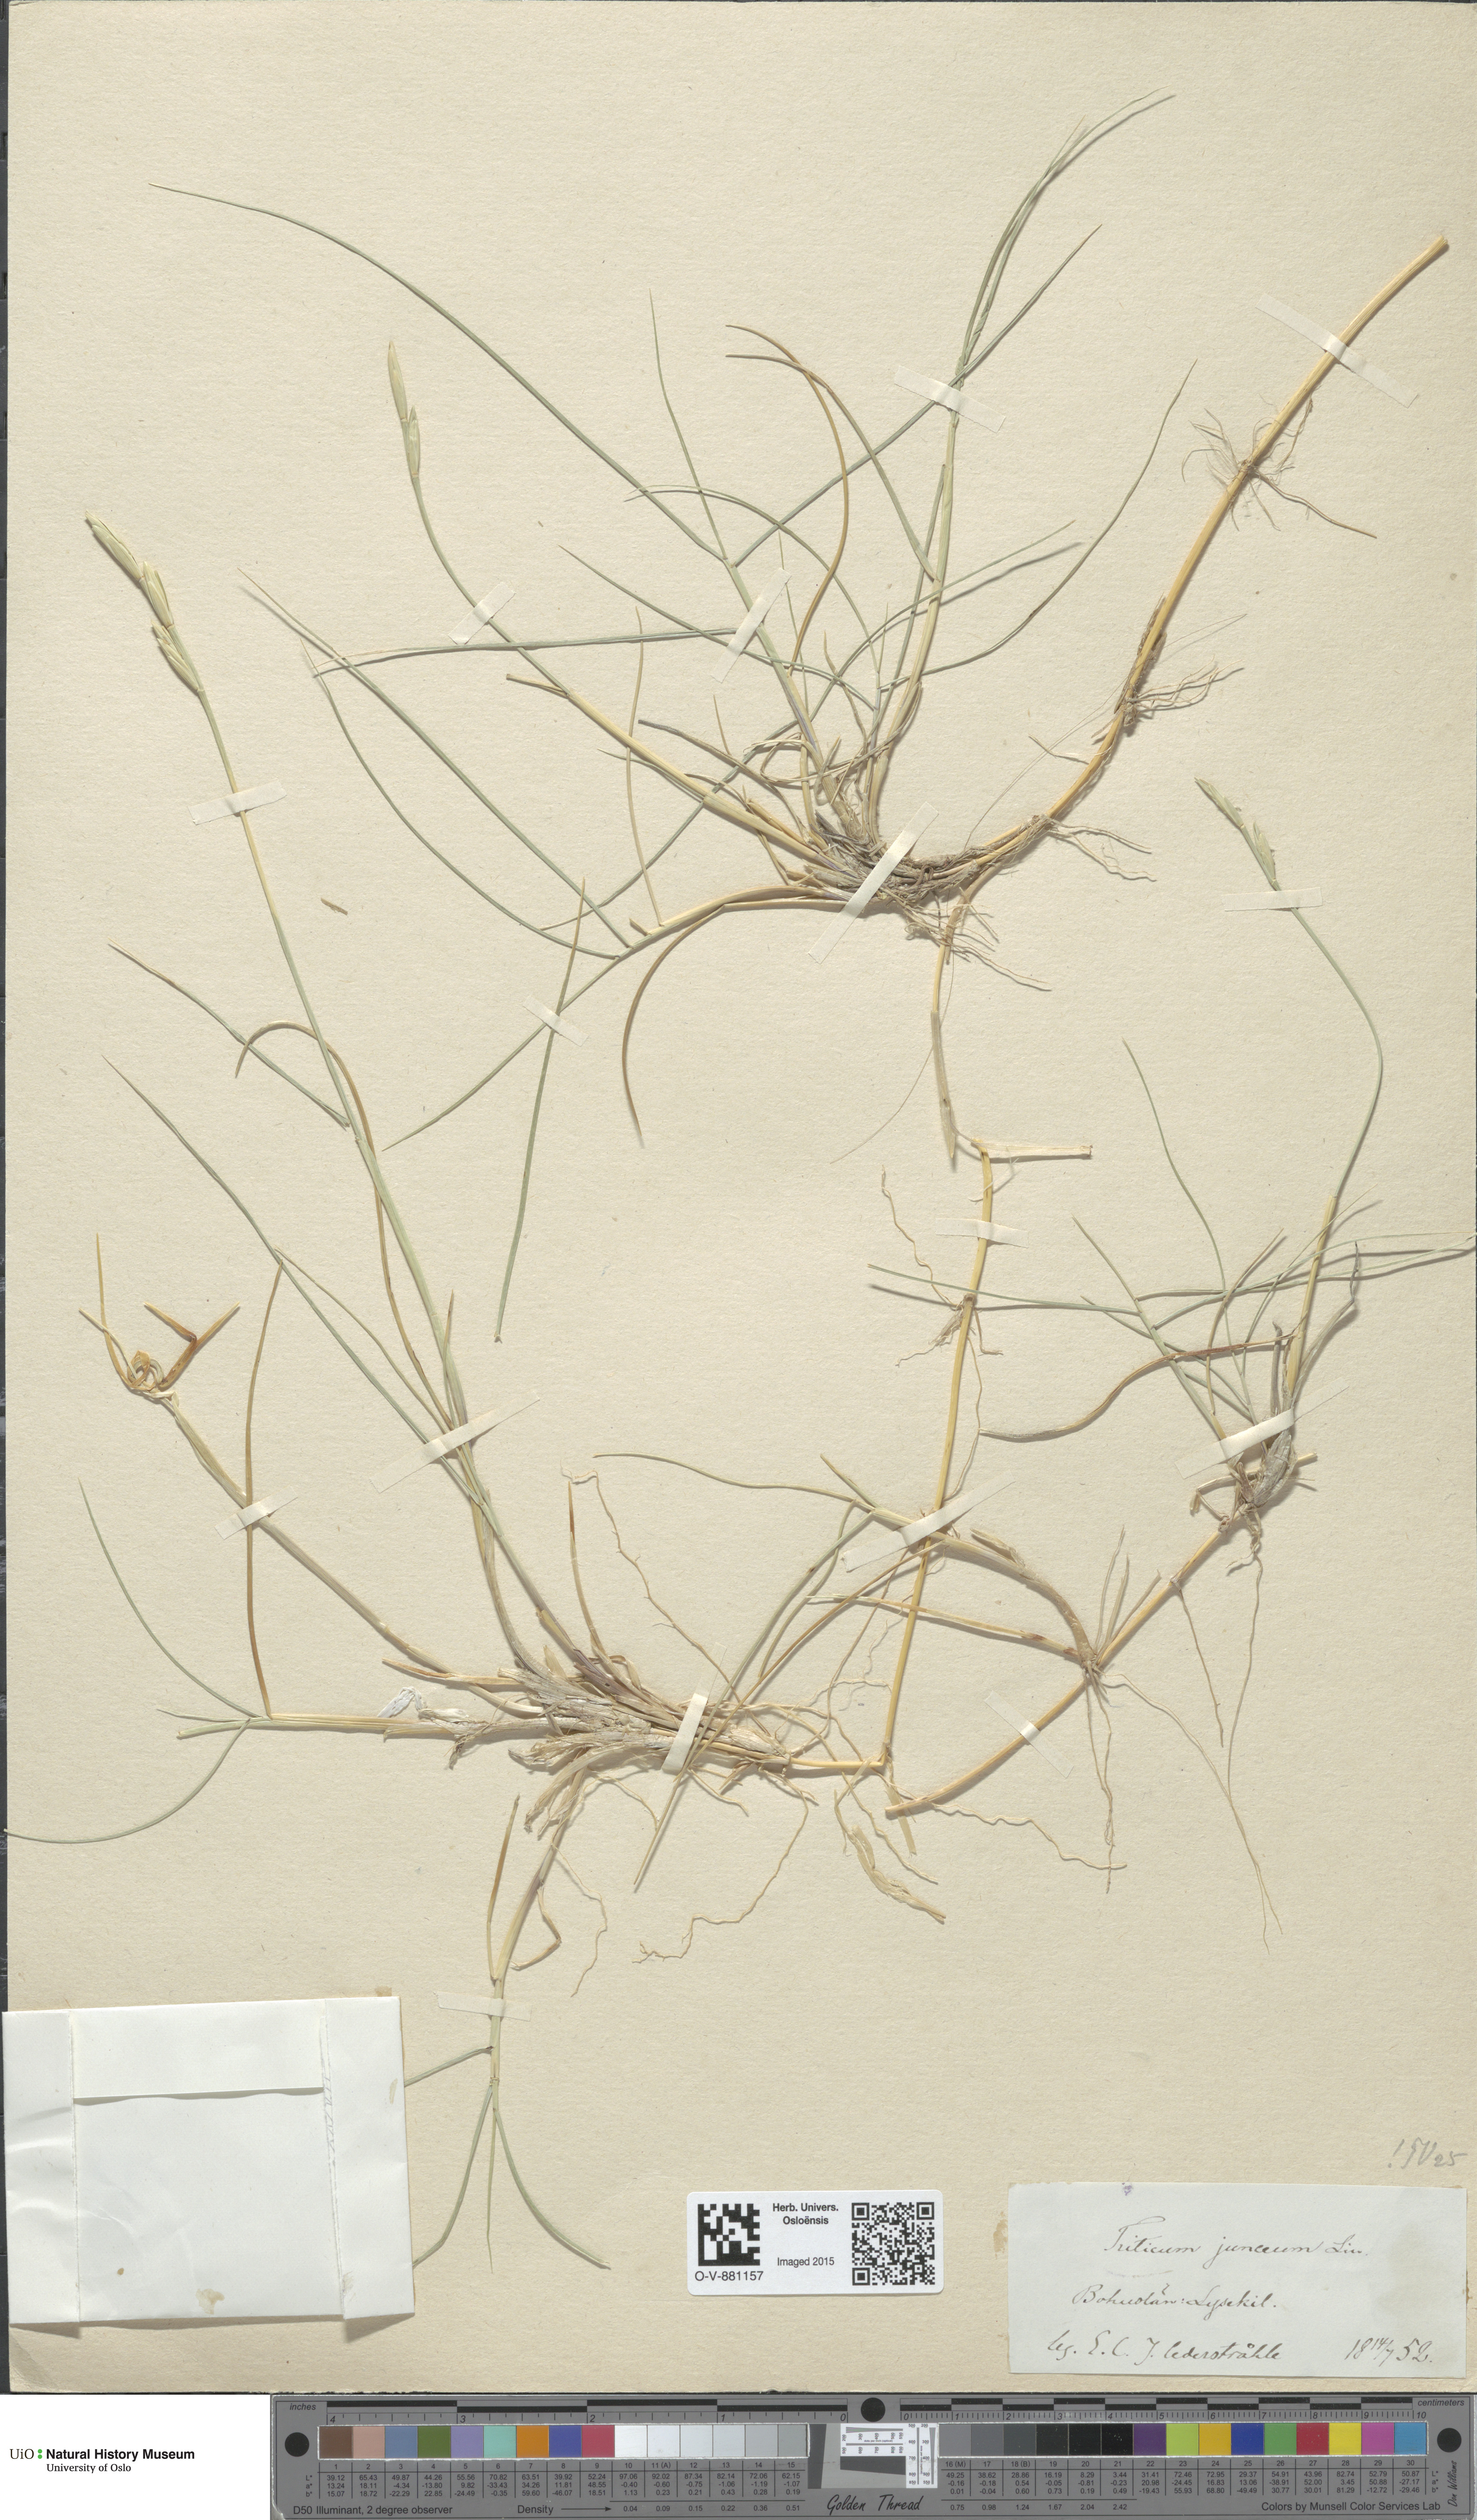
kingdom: Plantae
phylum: Tracheophyta
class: Liliopsida
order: Poales
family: Poaceae
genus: Thinopyrum
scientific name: Thinopyrum junceum
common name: Russian wheatgrass
